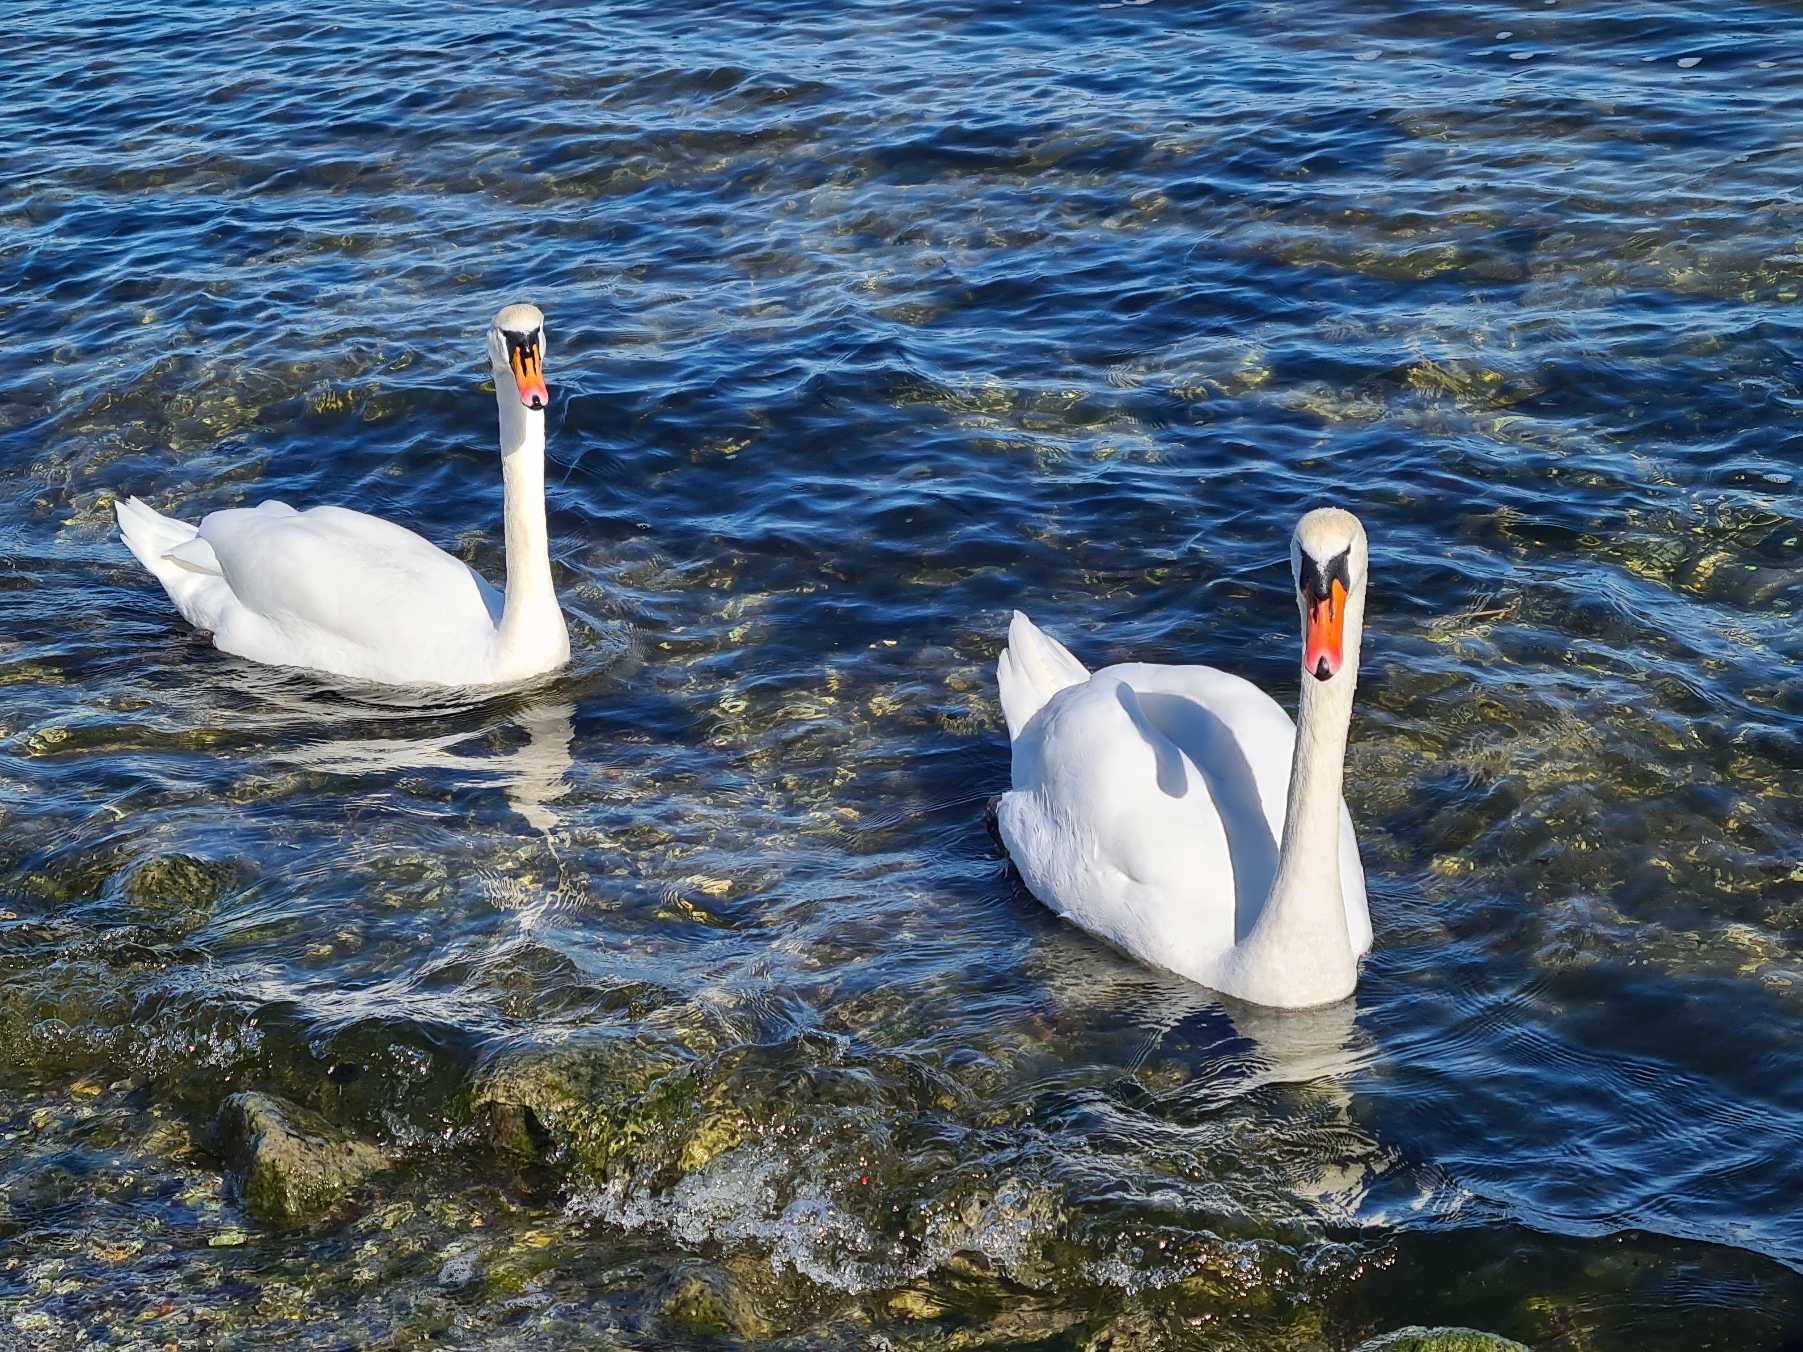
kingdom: Animalia
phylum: Chordata
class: Aves
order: Anseriformes
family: Anatidae
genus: Cygnus
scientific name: Cygnus olor
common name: Knopsvane
